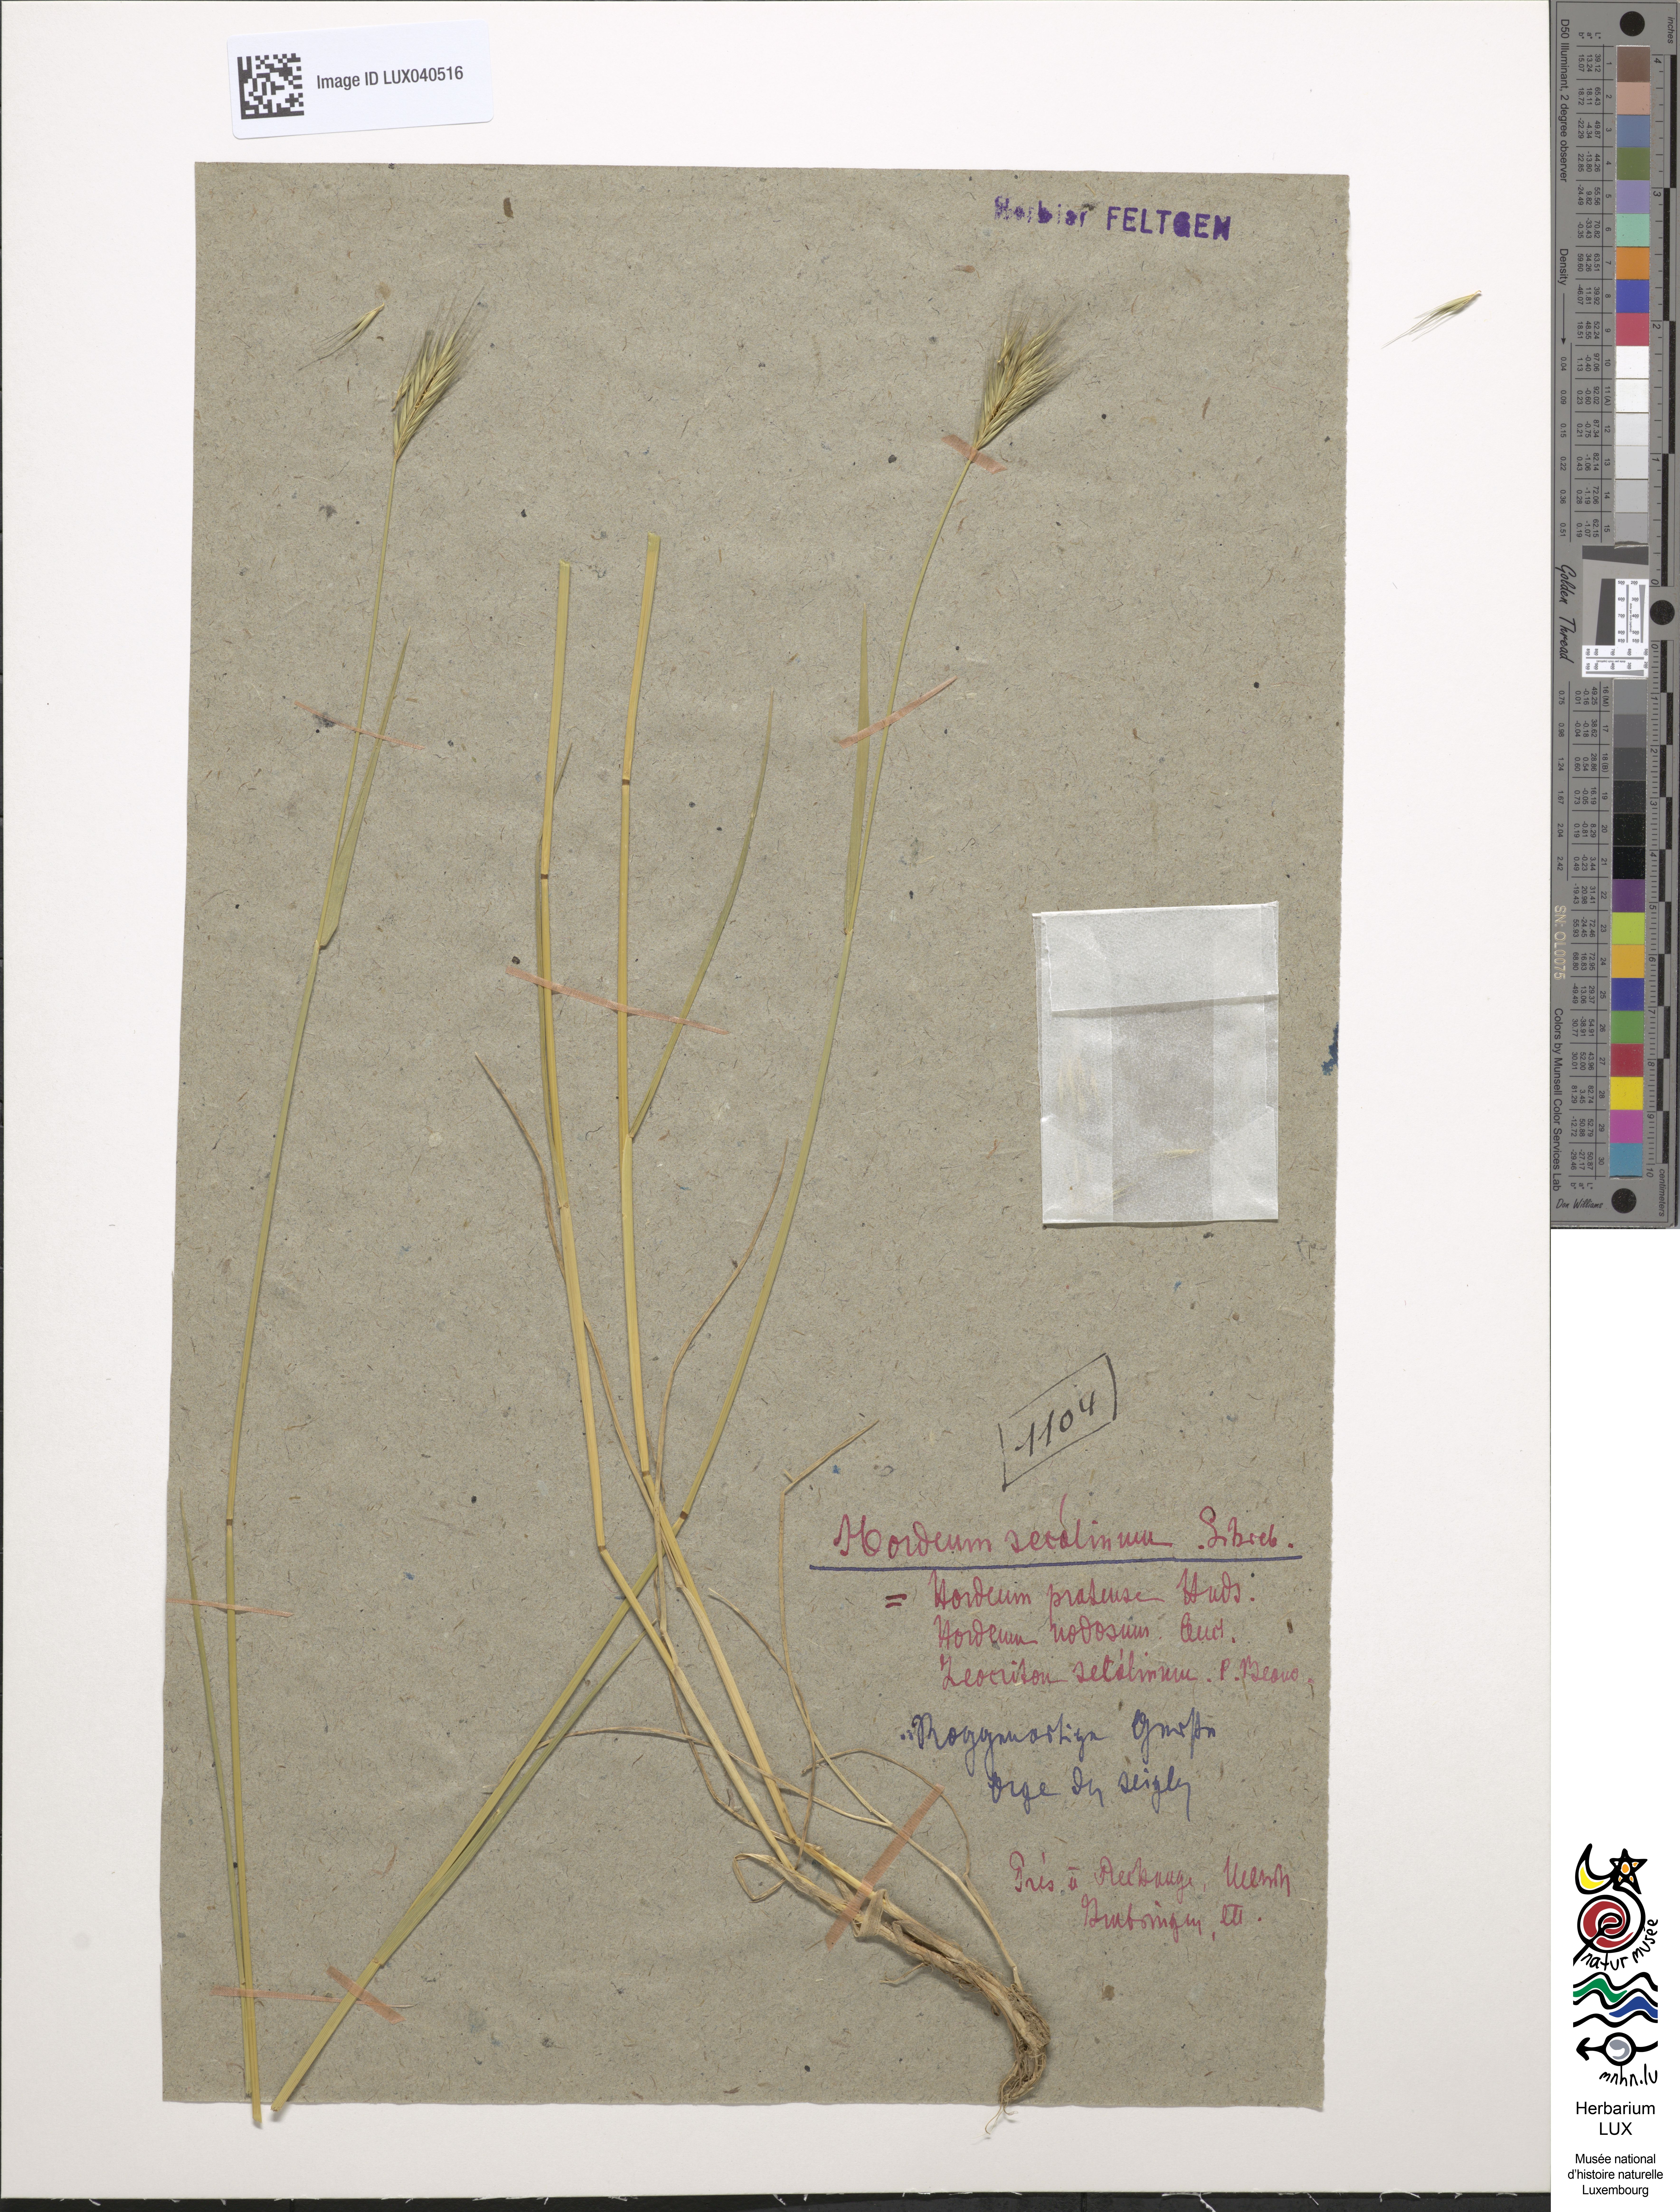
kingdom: Plantae
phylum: Tracheophyta
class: Liliopsida
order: Poales
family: Poaceae
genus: Hordeum
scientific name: Hordeum secalinum
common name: Meadow barley
